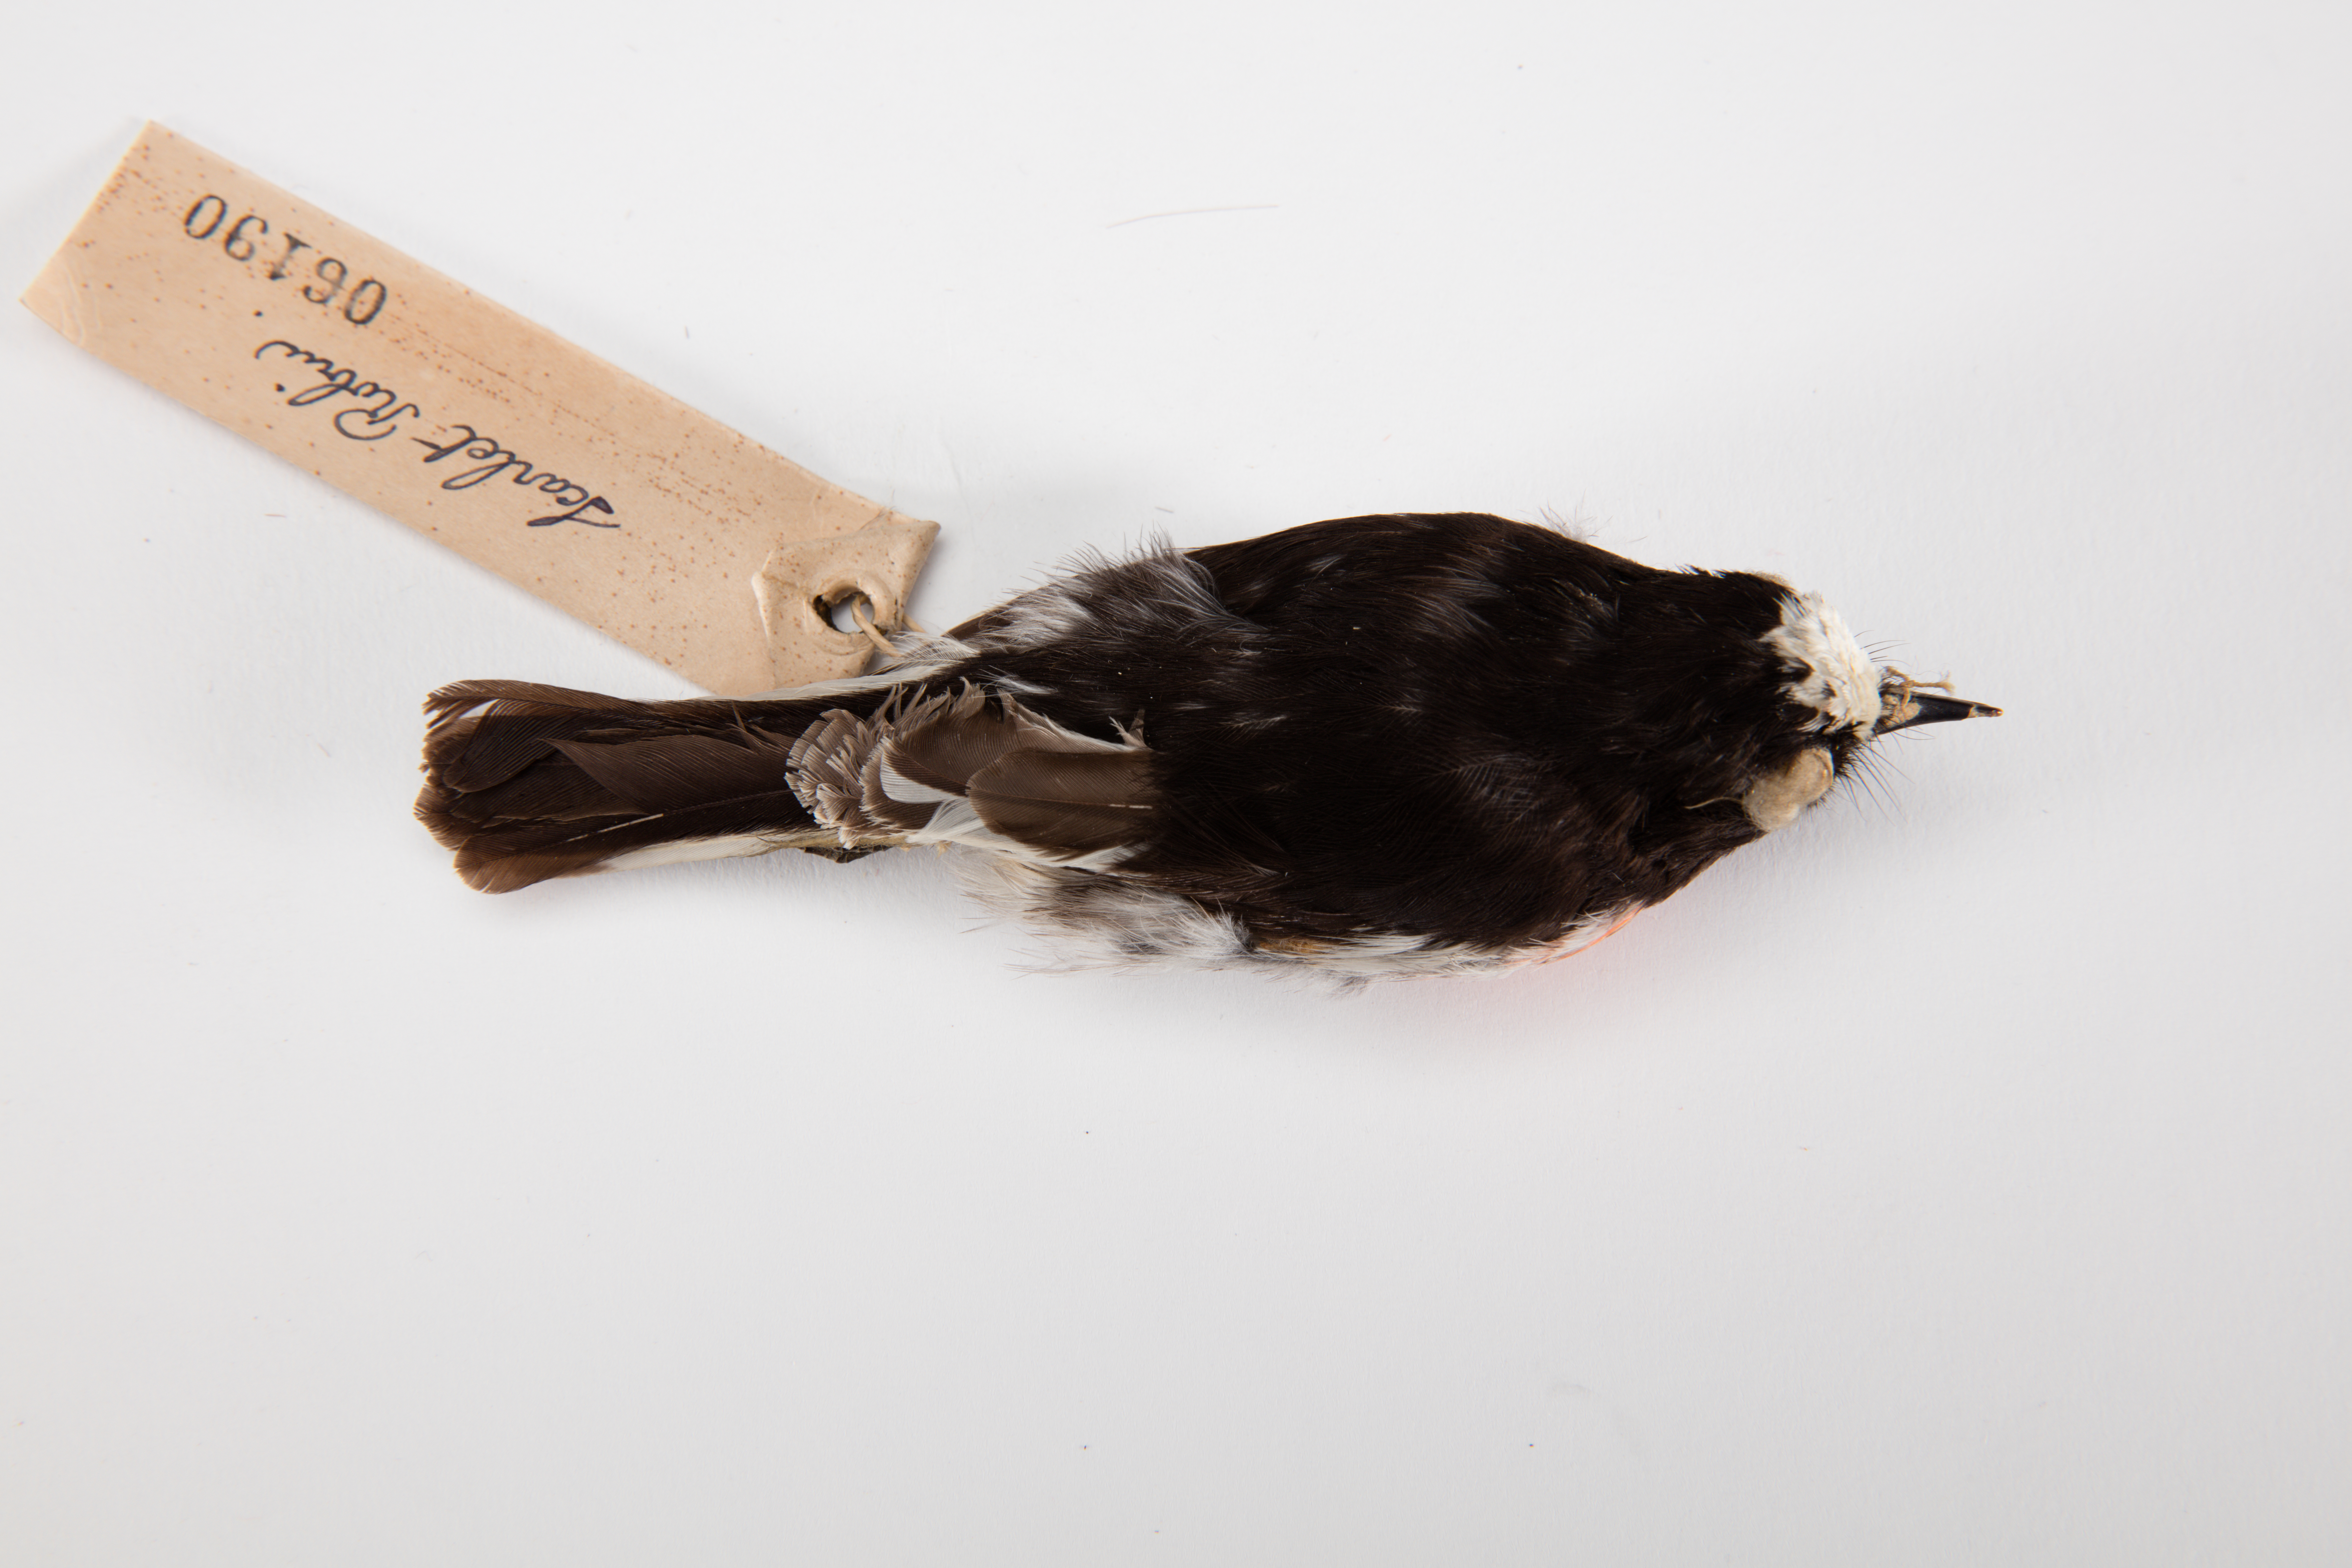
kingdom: Animalia
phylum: Chordata
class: Aves
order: Passeriformes
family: Petroicidae
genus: Petroica
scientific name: Petroica multicolor
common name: Pacific robin
